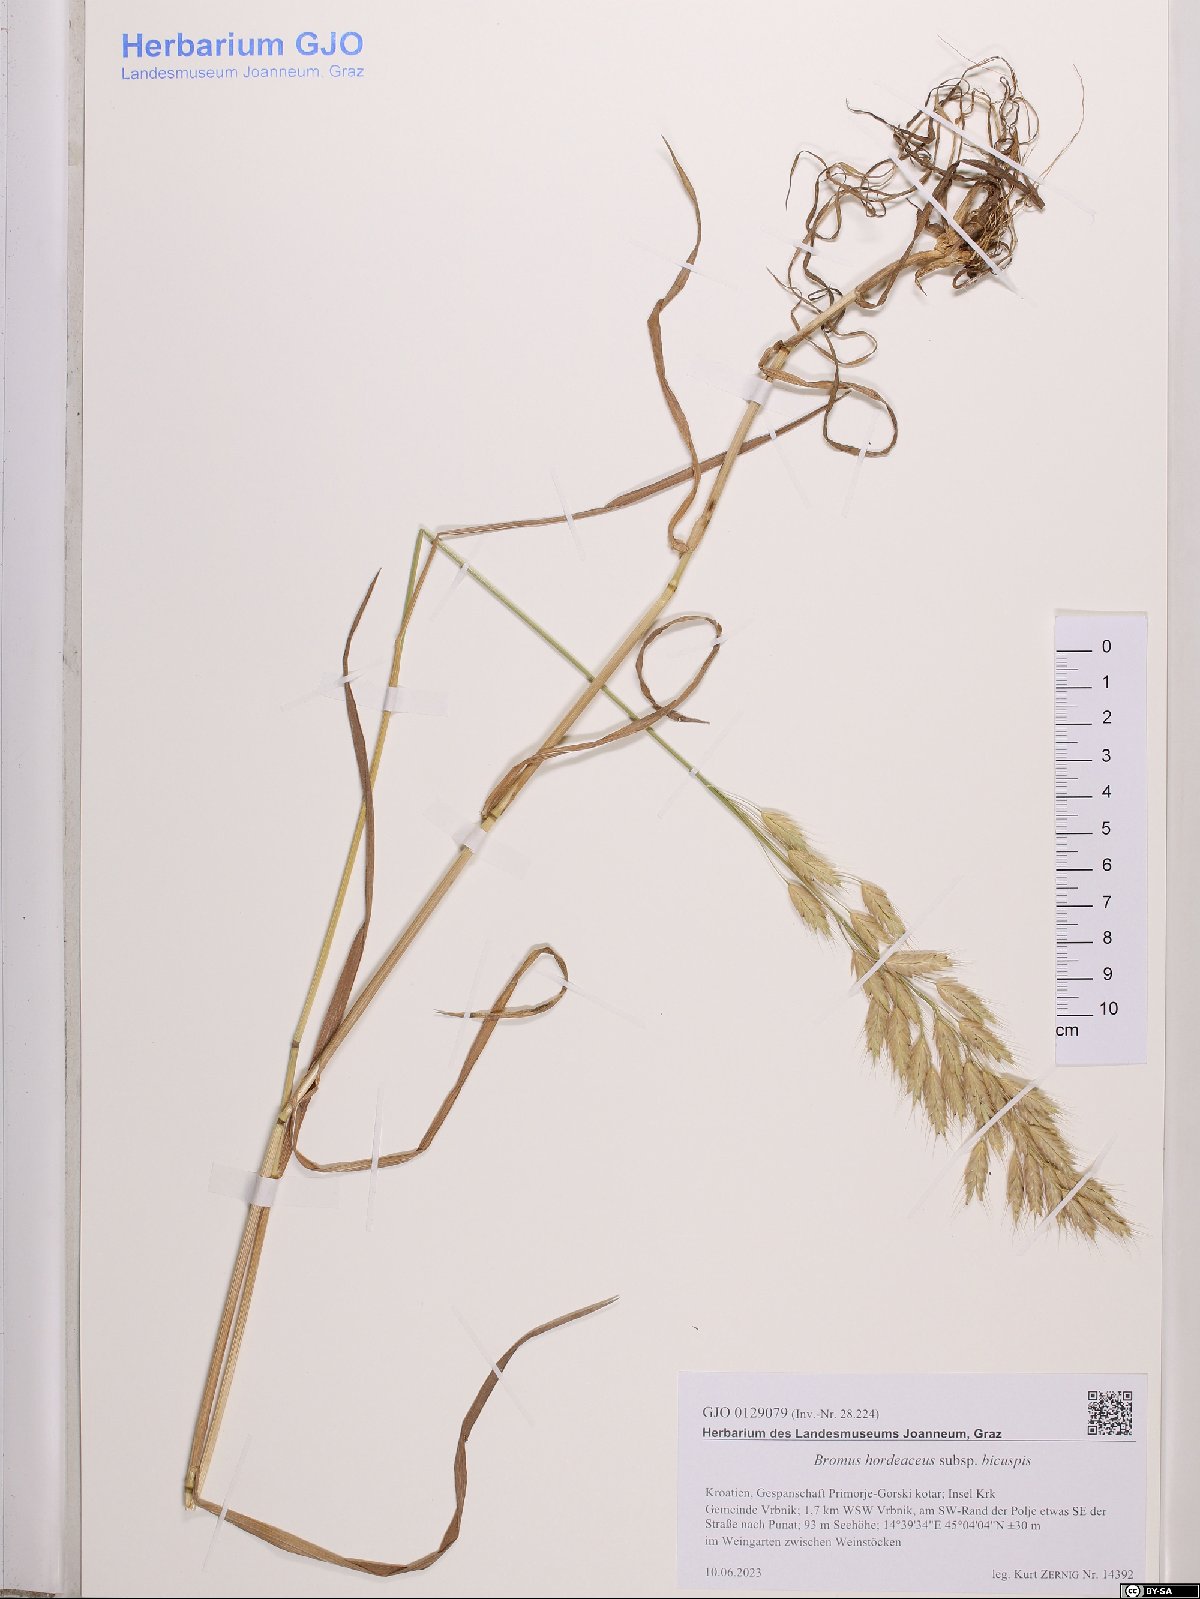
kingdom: Plantae
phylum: Tracheophyta
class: Liliopsida
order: Poales
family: Poaceae
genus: Bromus
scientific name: Bromus hordeaceus
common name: Soft brome
